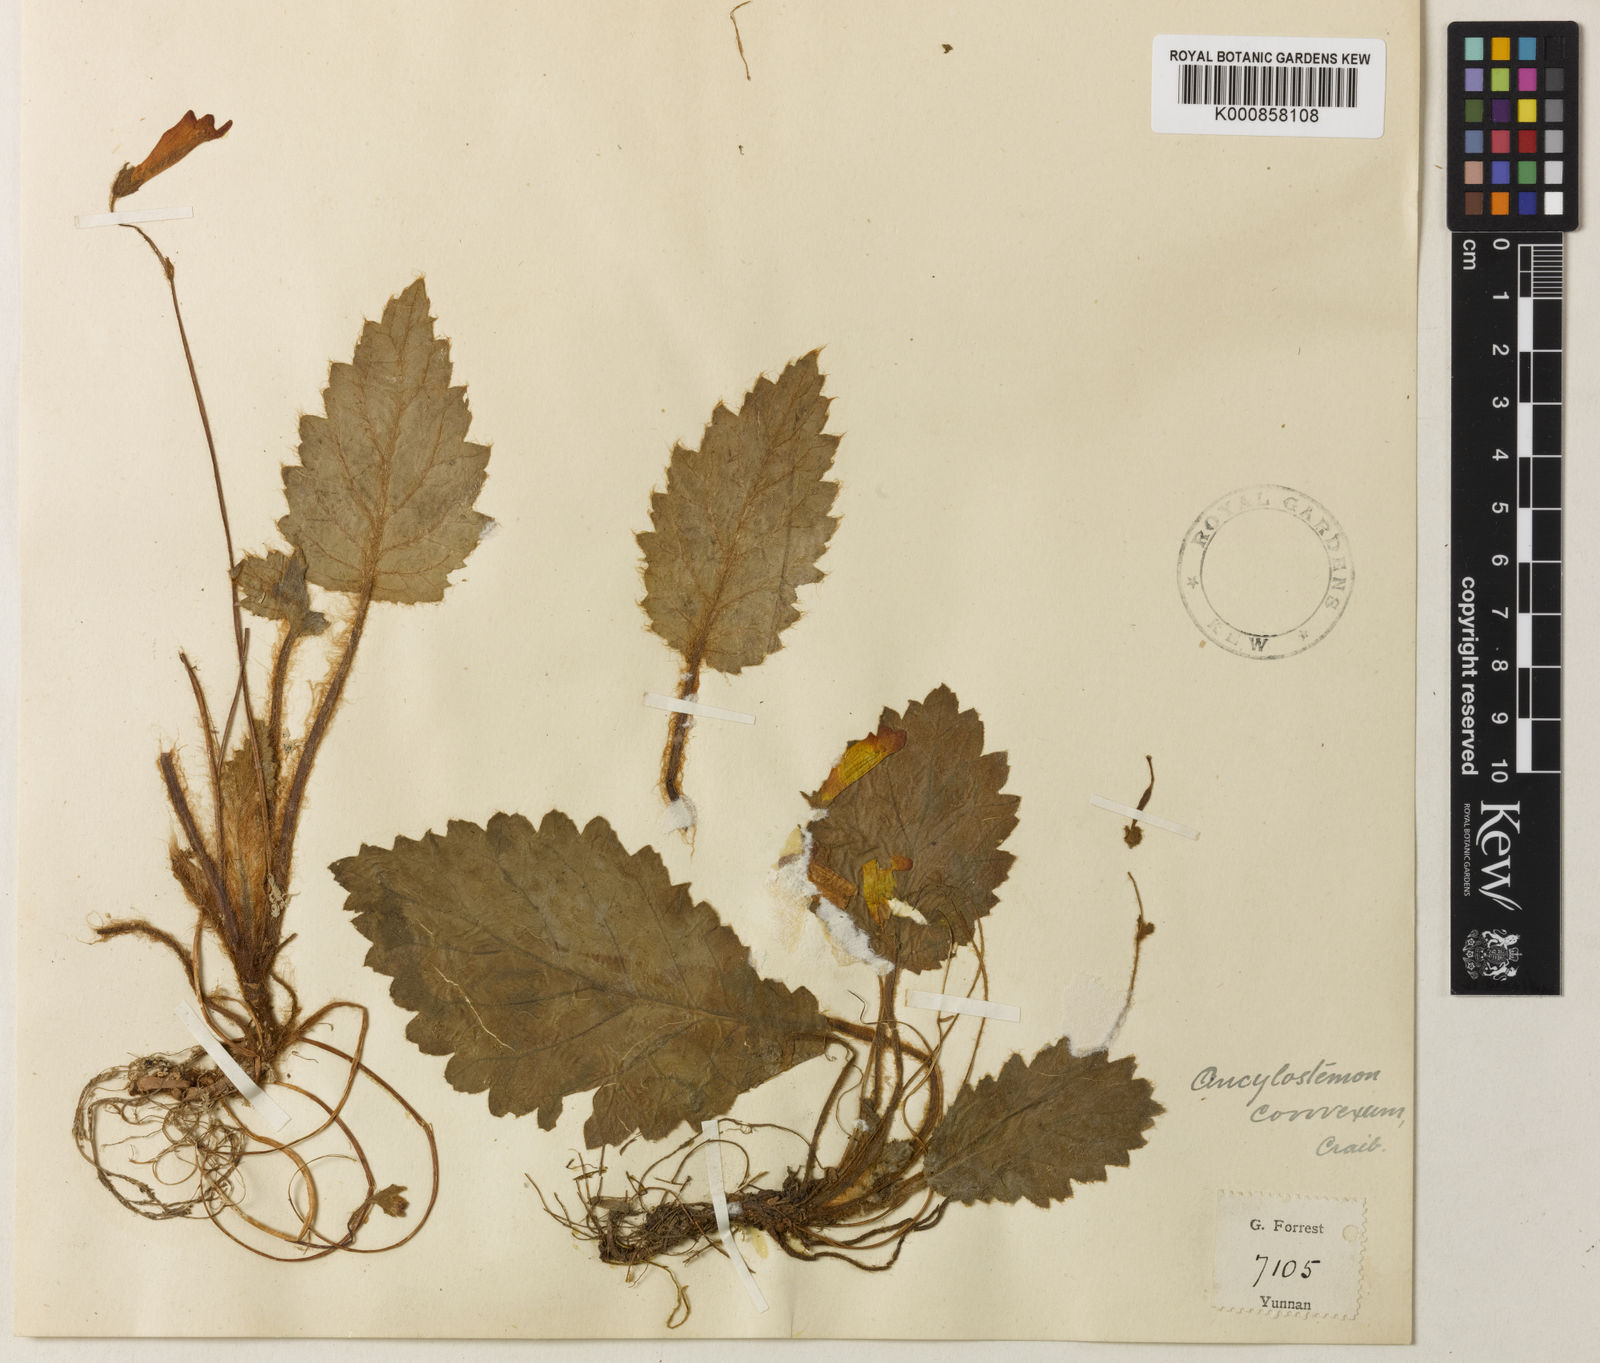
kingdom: Plantae
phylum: Tracheophyta
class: Magnoliopsida
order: Lamiales
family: Gesneriaceae
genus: Oreocharis
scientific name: Oreocharis
